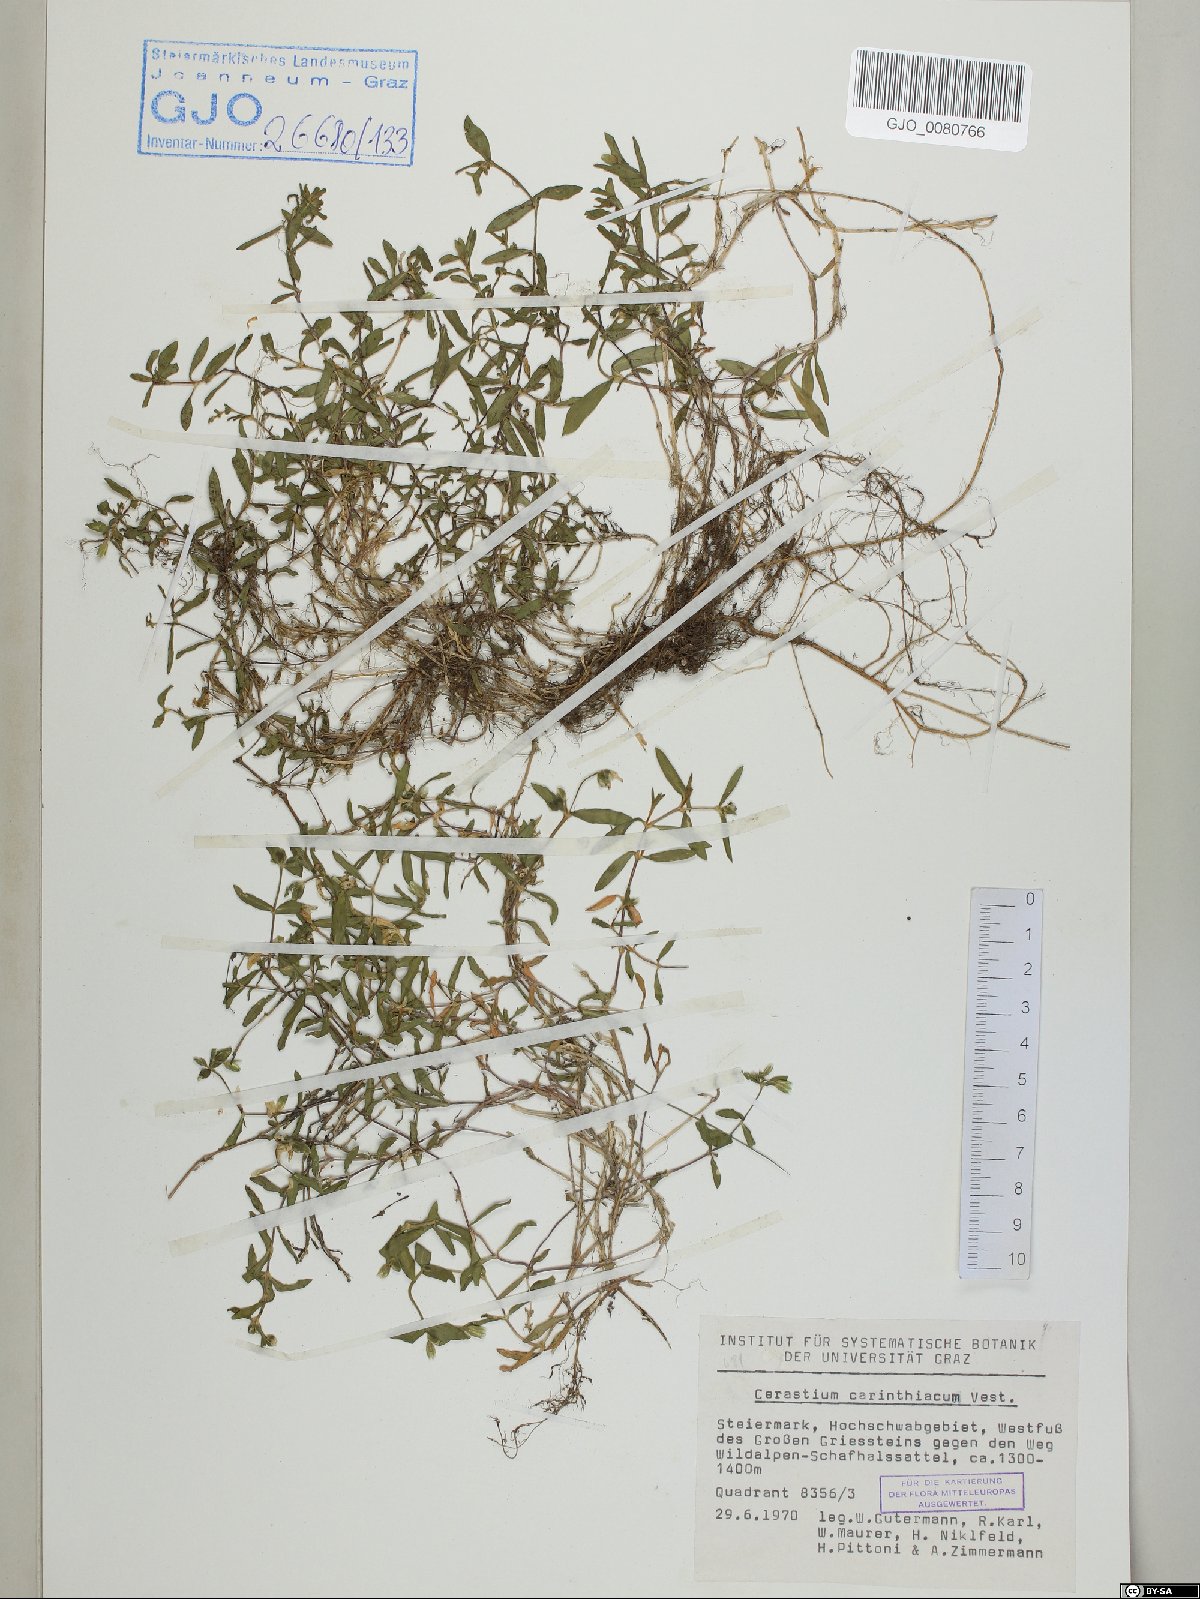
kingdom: Plantae
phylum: Tracheophyta
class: Magnoliopsida
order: Caryophyllales
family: Caryophyllaceae
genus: Cerastium
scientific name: Cerastium carinthiacum
